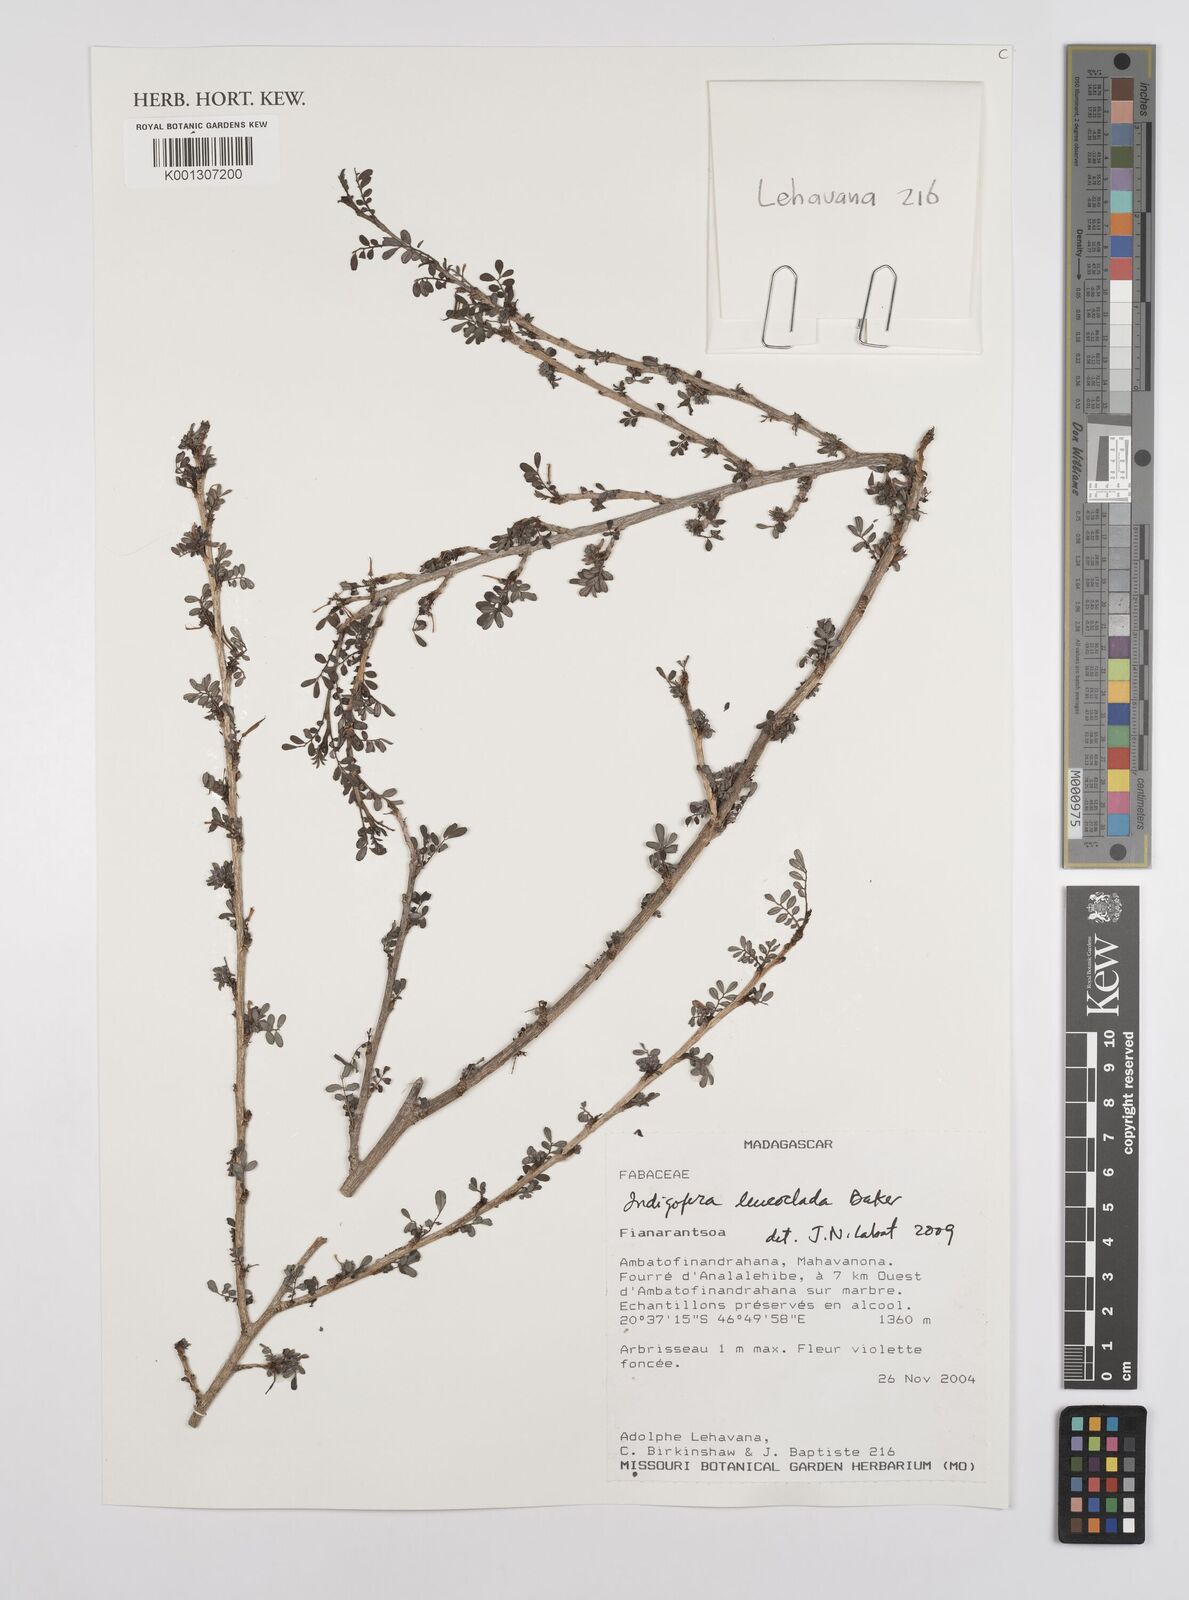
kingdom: Plantae
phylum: Tracheophyta
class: Magnoliopsida
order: Fabales
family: Fabaceae
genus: Indigofera
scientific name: Indigofera
